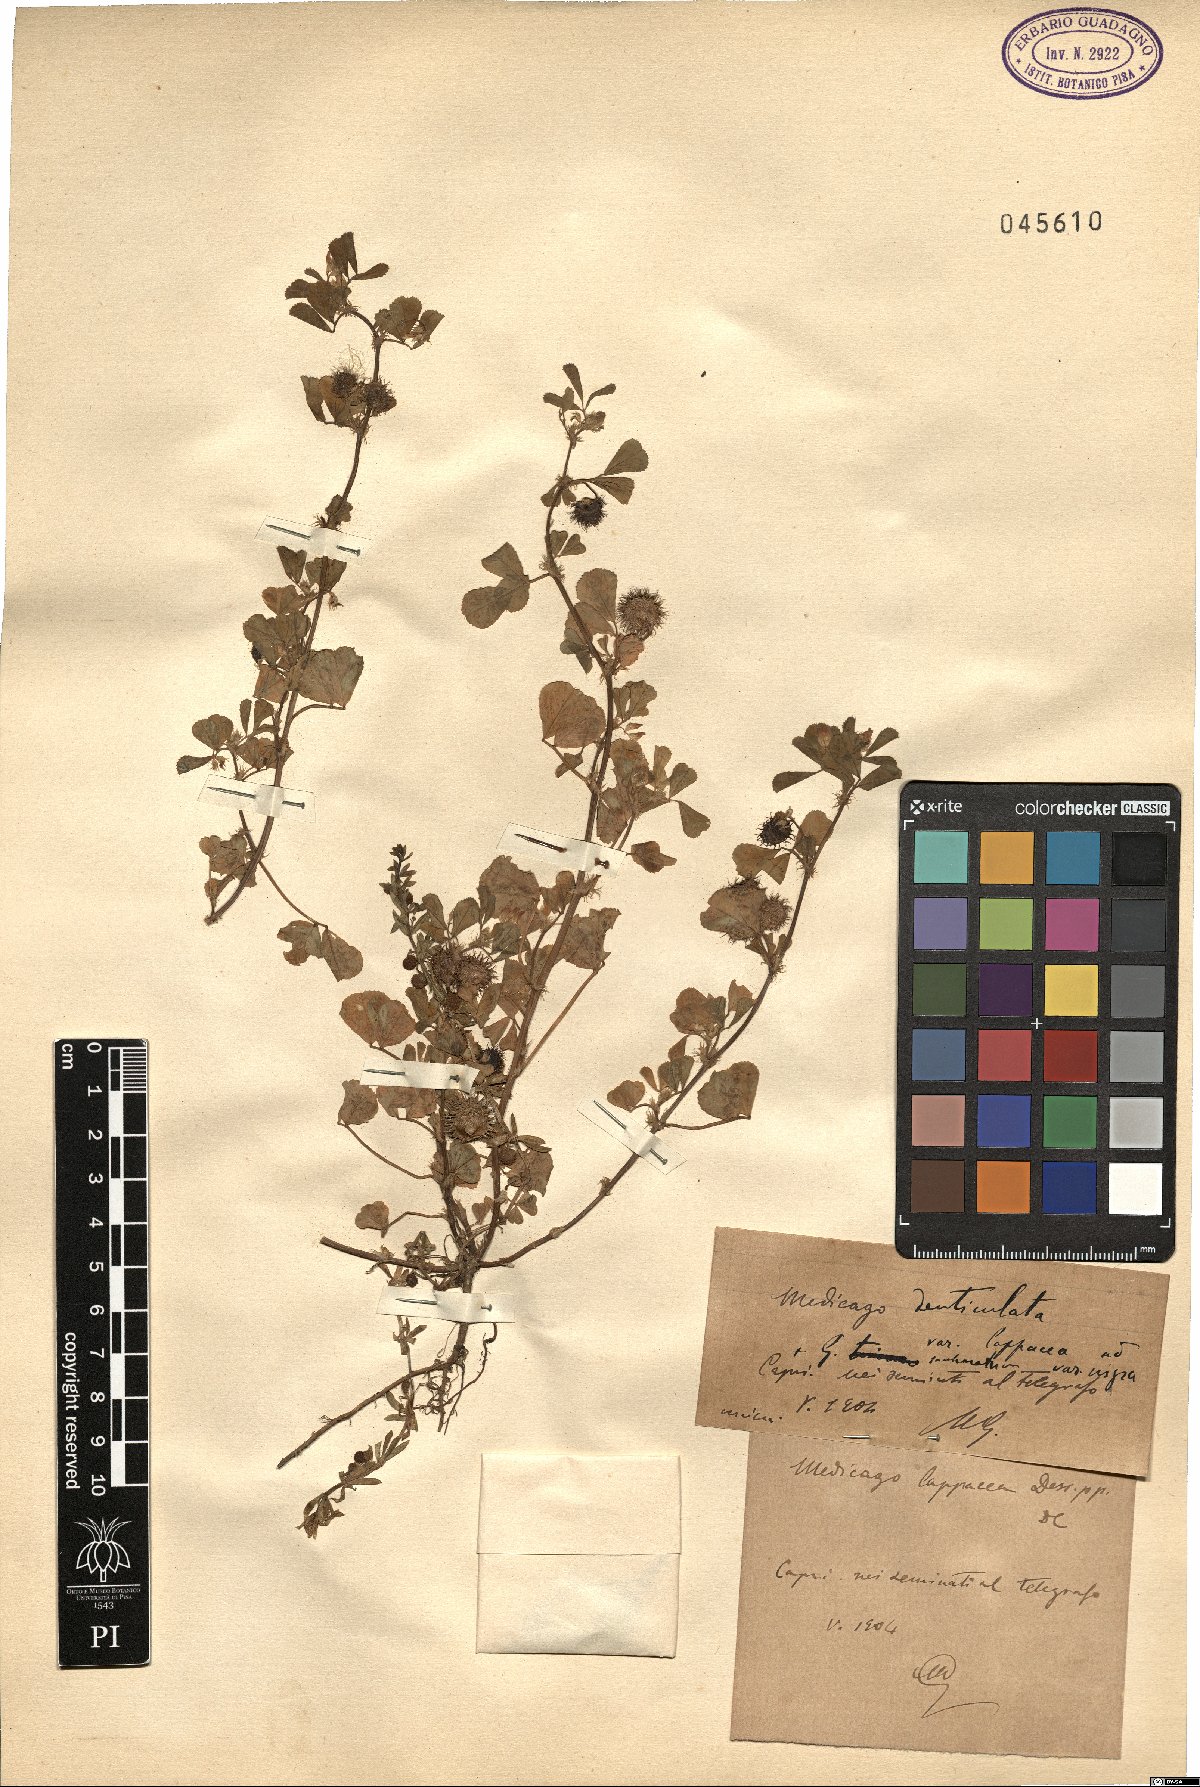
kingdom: Plantae
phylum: Tracheophyta
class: Magnoliopsida
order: Fabales
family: Fabaceae
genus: Medicago
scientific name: Medicago polymorpha
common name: Burclover
